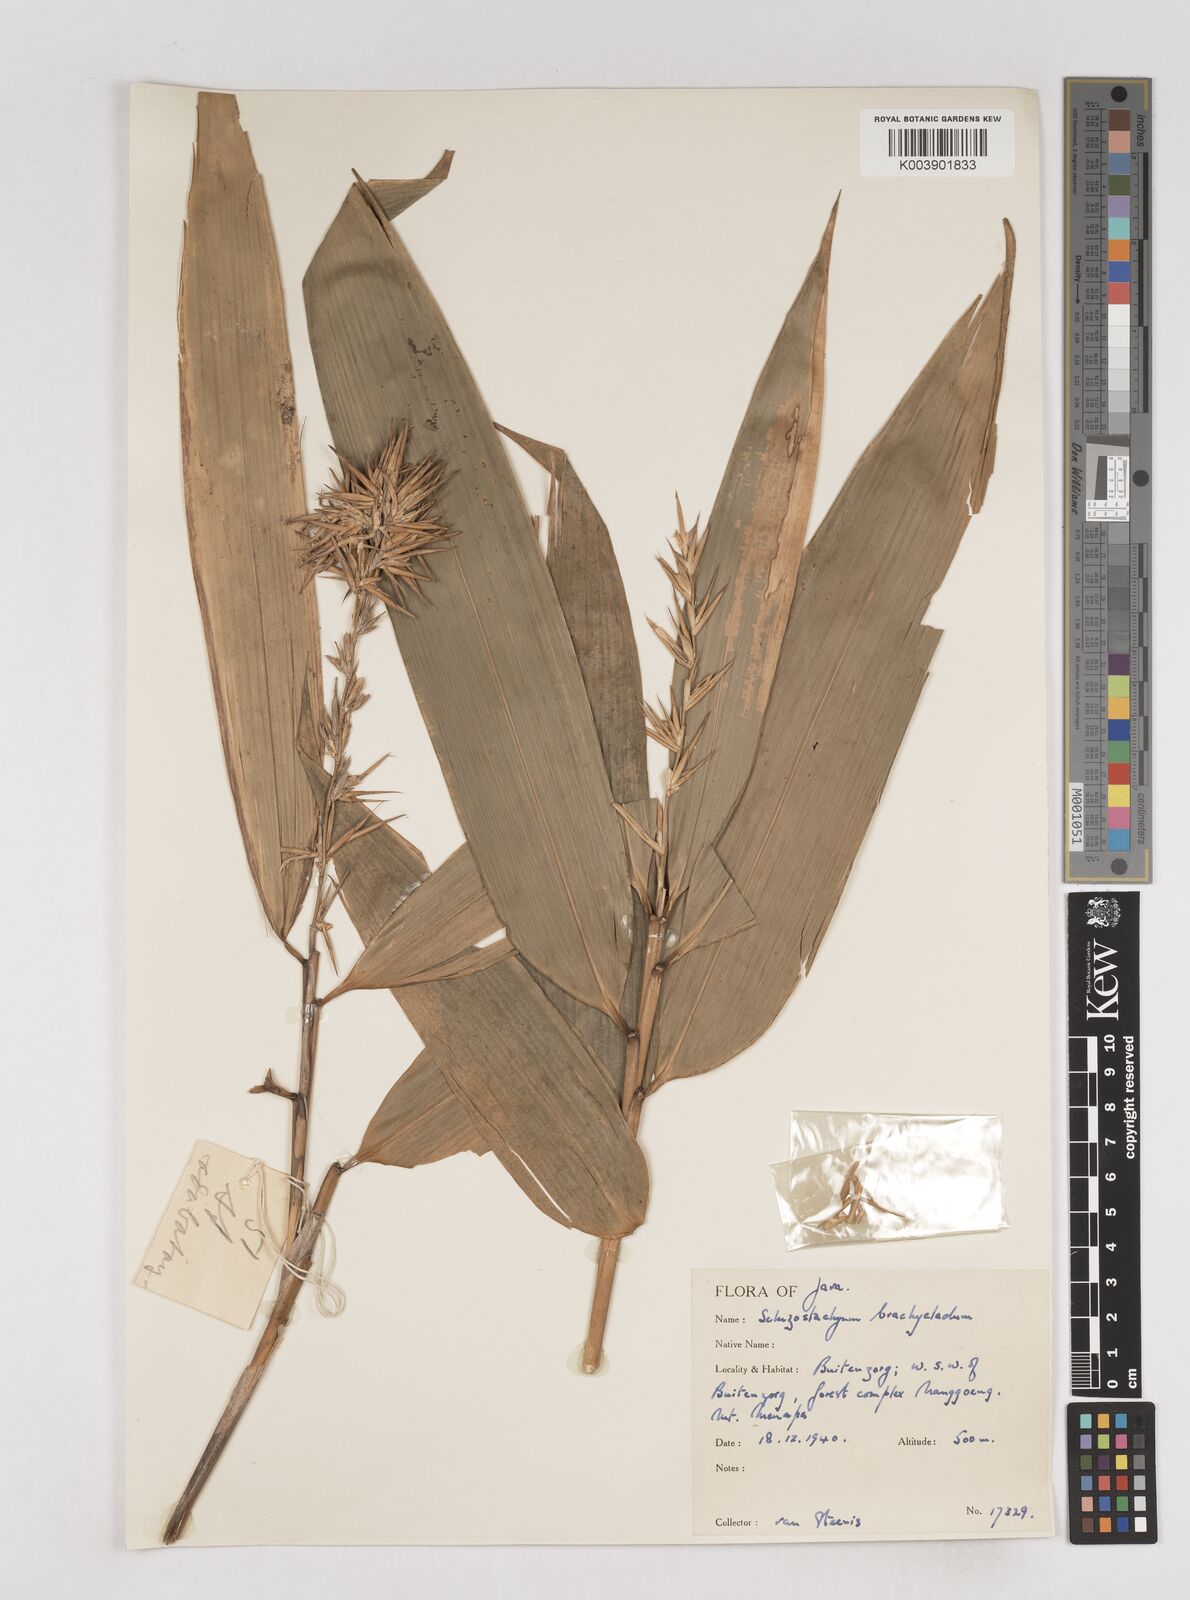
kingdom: Plantae
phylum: Tracheophyta
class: Liliopsida
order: Poales
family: Poaceae
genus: Schizostachyum
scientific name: Schizostachyum brachycladum
